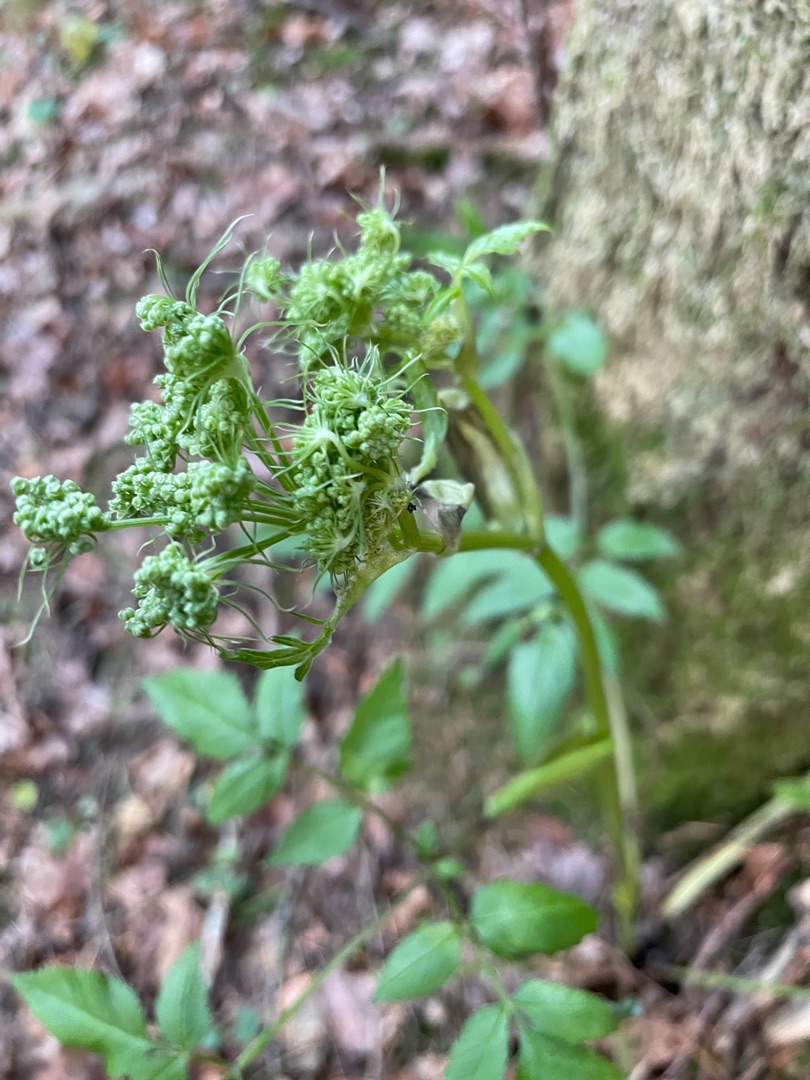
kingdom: Plantae
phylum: Tracheophyta
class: Magnoliopsida
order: Apiales
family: Apiaceae
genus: Angelica
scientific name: Angelica sylvestris
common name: Angelik
